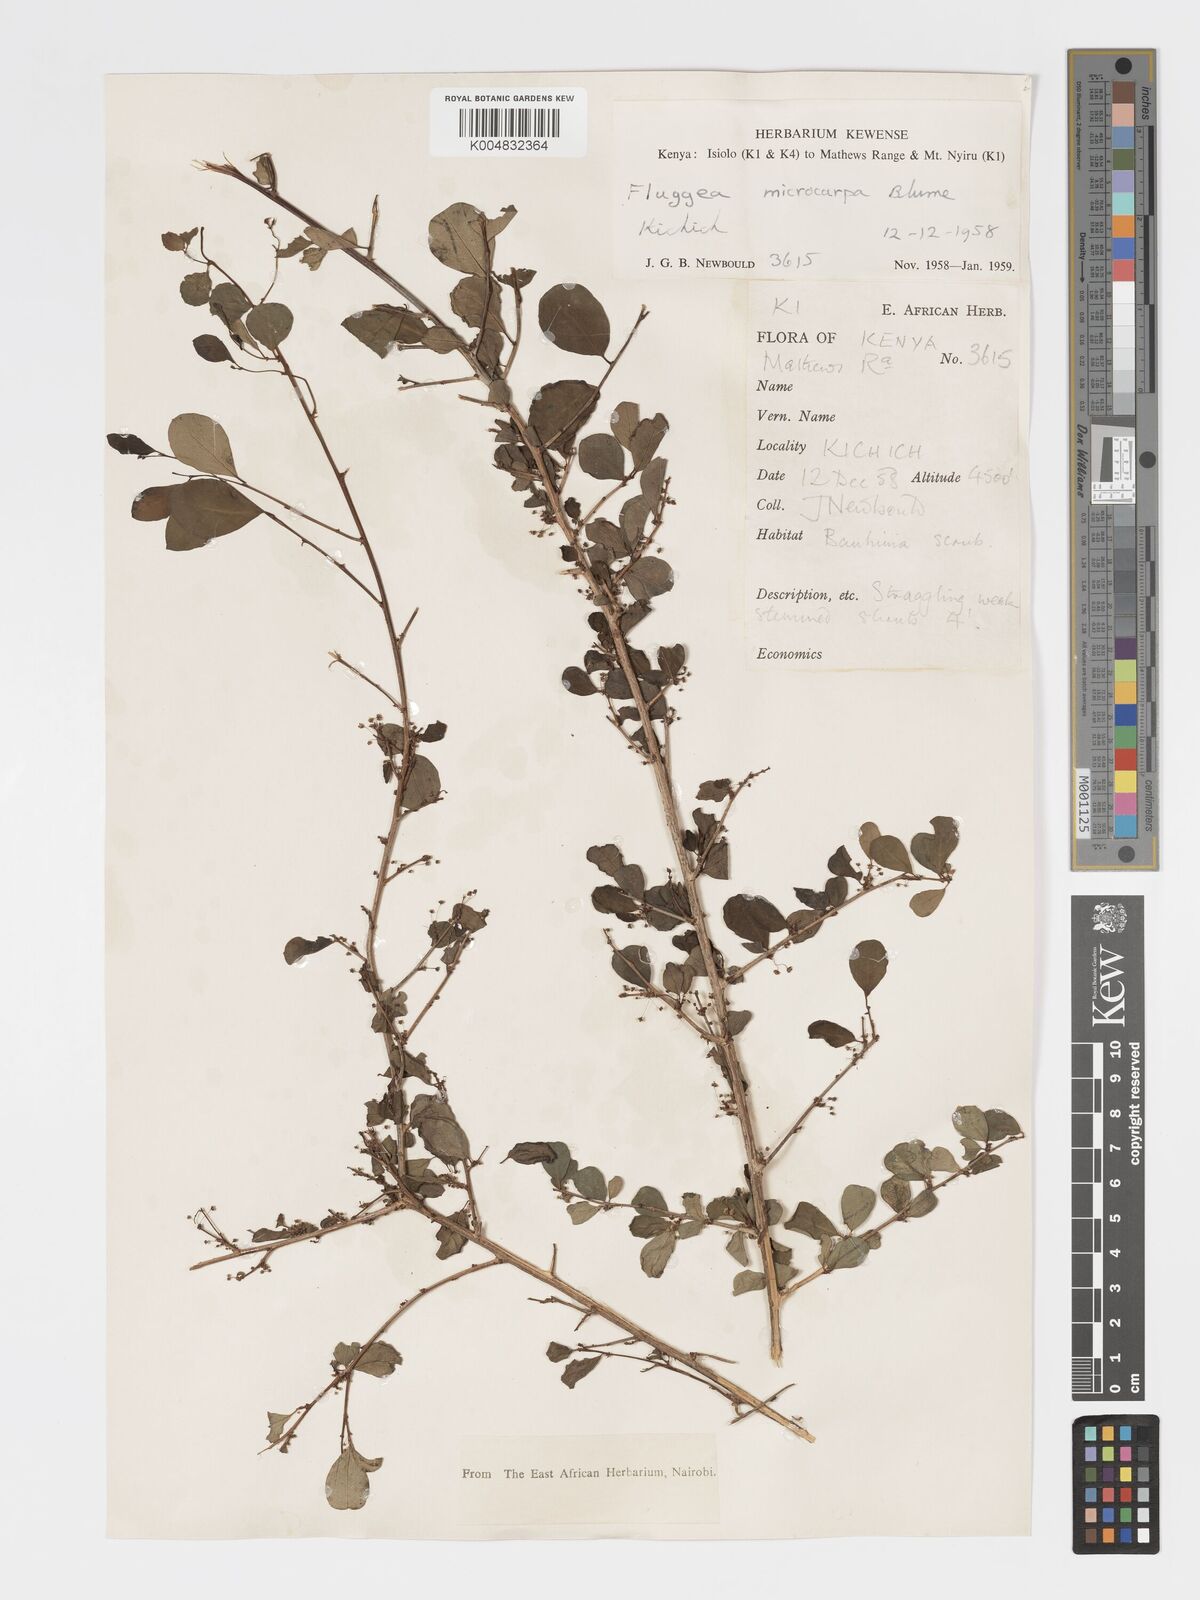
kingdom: Plantae
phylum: Tracheophyta
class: Magnoliopsida
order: Malpighiales
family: Phyllanthaceae
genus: Flueggea
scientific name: Flueggea virosa
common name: Common bushweed
